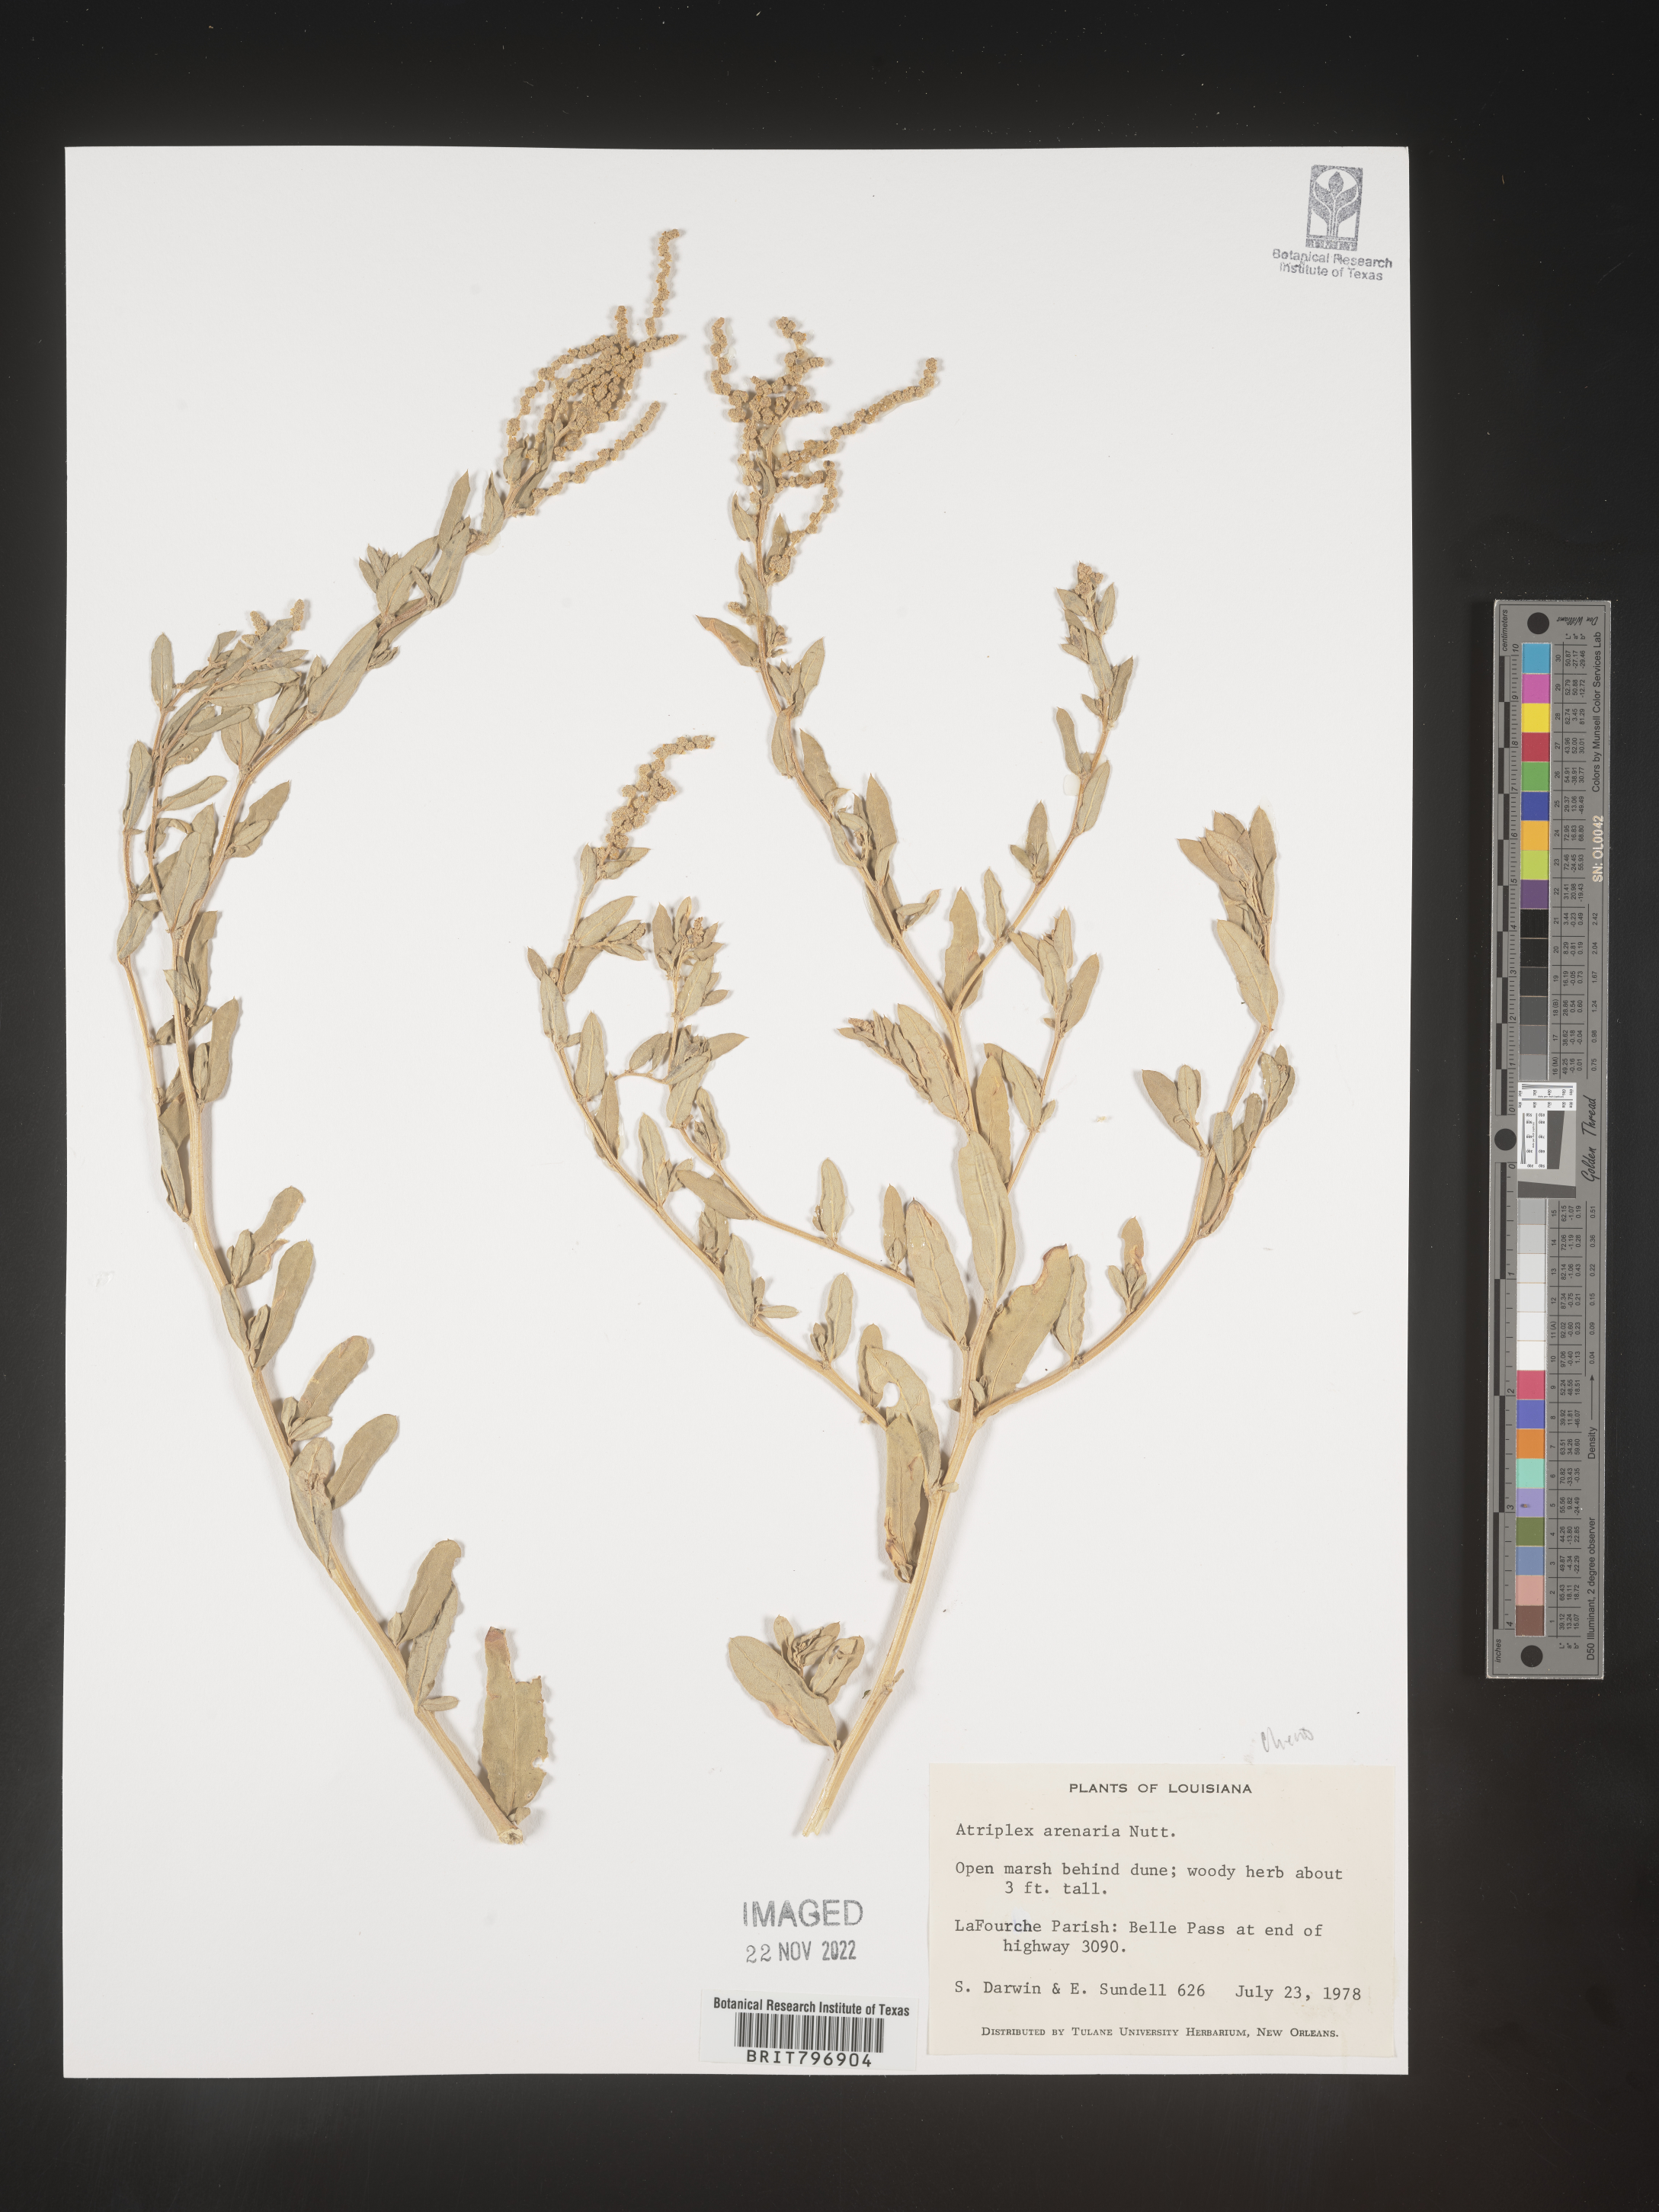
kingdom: Plantae
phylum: Tracheophyta
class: Magnoliopsida
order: Caryophyllales
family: Amaranthaceae
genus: Atriplex
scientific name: Atriplex mucronata
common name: Quelite
